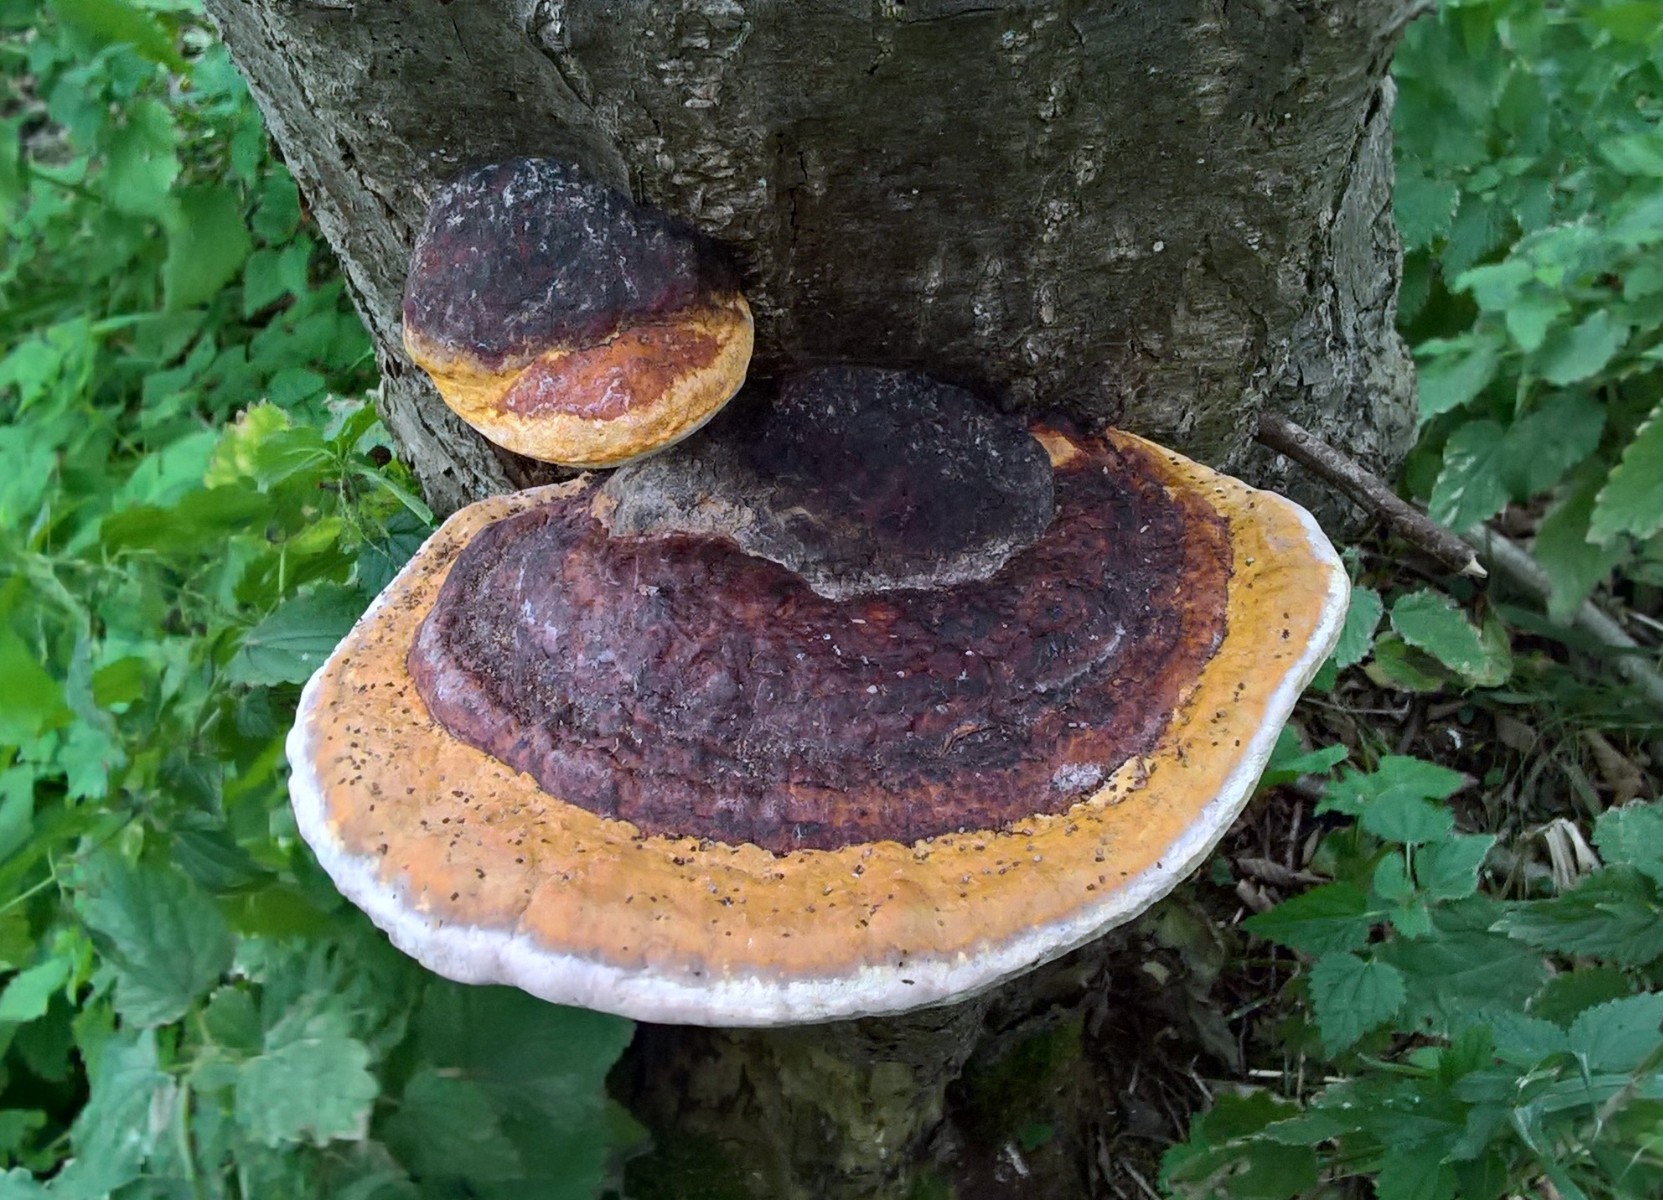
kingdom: Fungi
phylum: Basidiomycota
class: Agaricomycetes
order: Polyporales
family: Fomitopsidaceae
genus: Fomitopsis
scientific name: Fomitopsis pinicola
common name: randbæltet hovporesvamp
